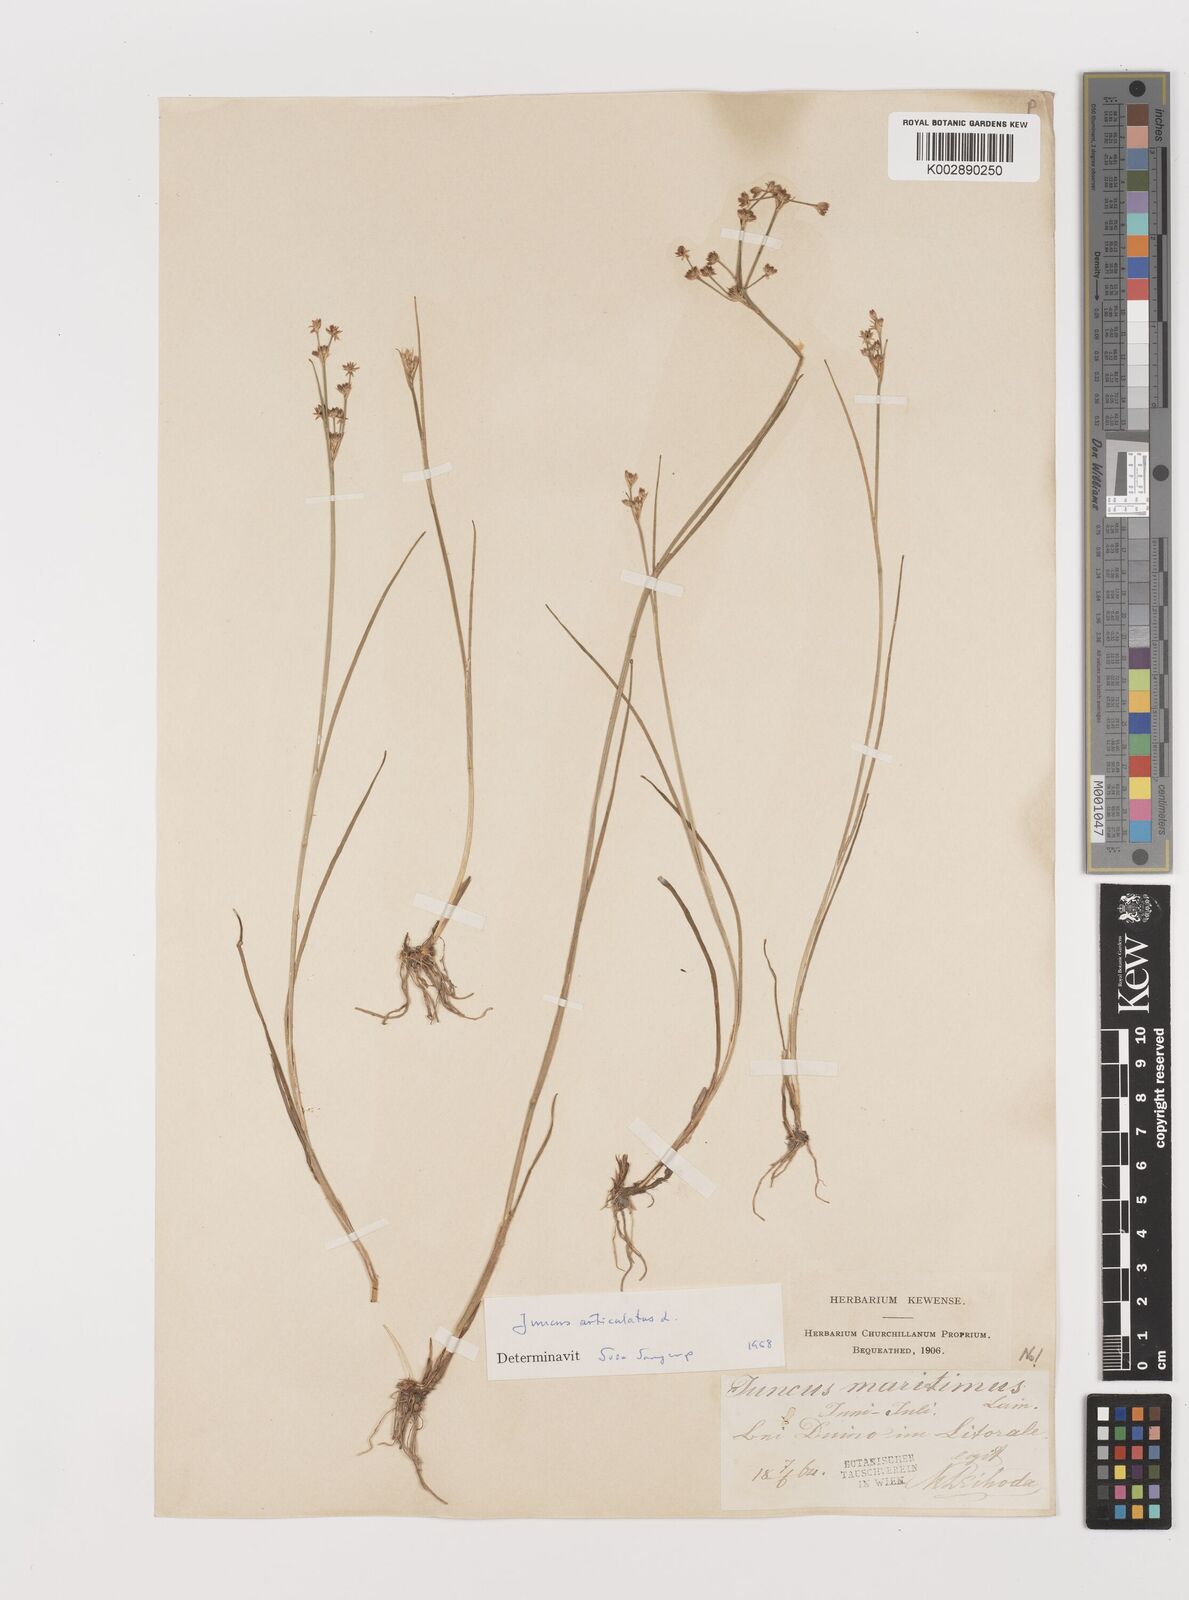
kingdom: Plantae
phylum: Tracheophyta
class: Liliopsida
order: Poales
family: Juncaceae
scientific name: Juncaceae
